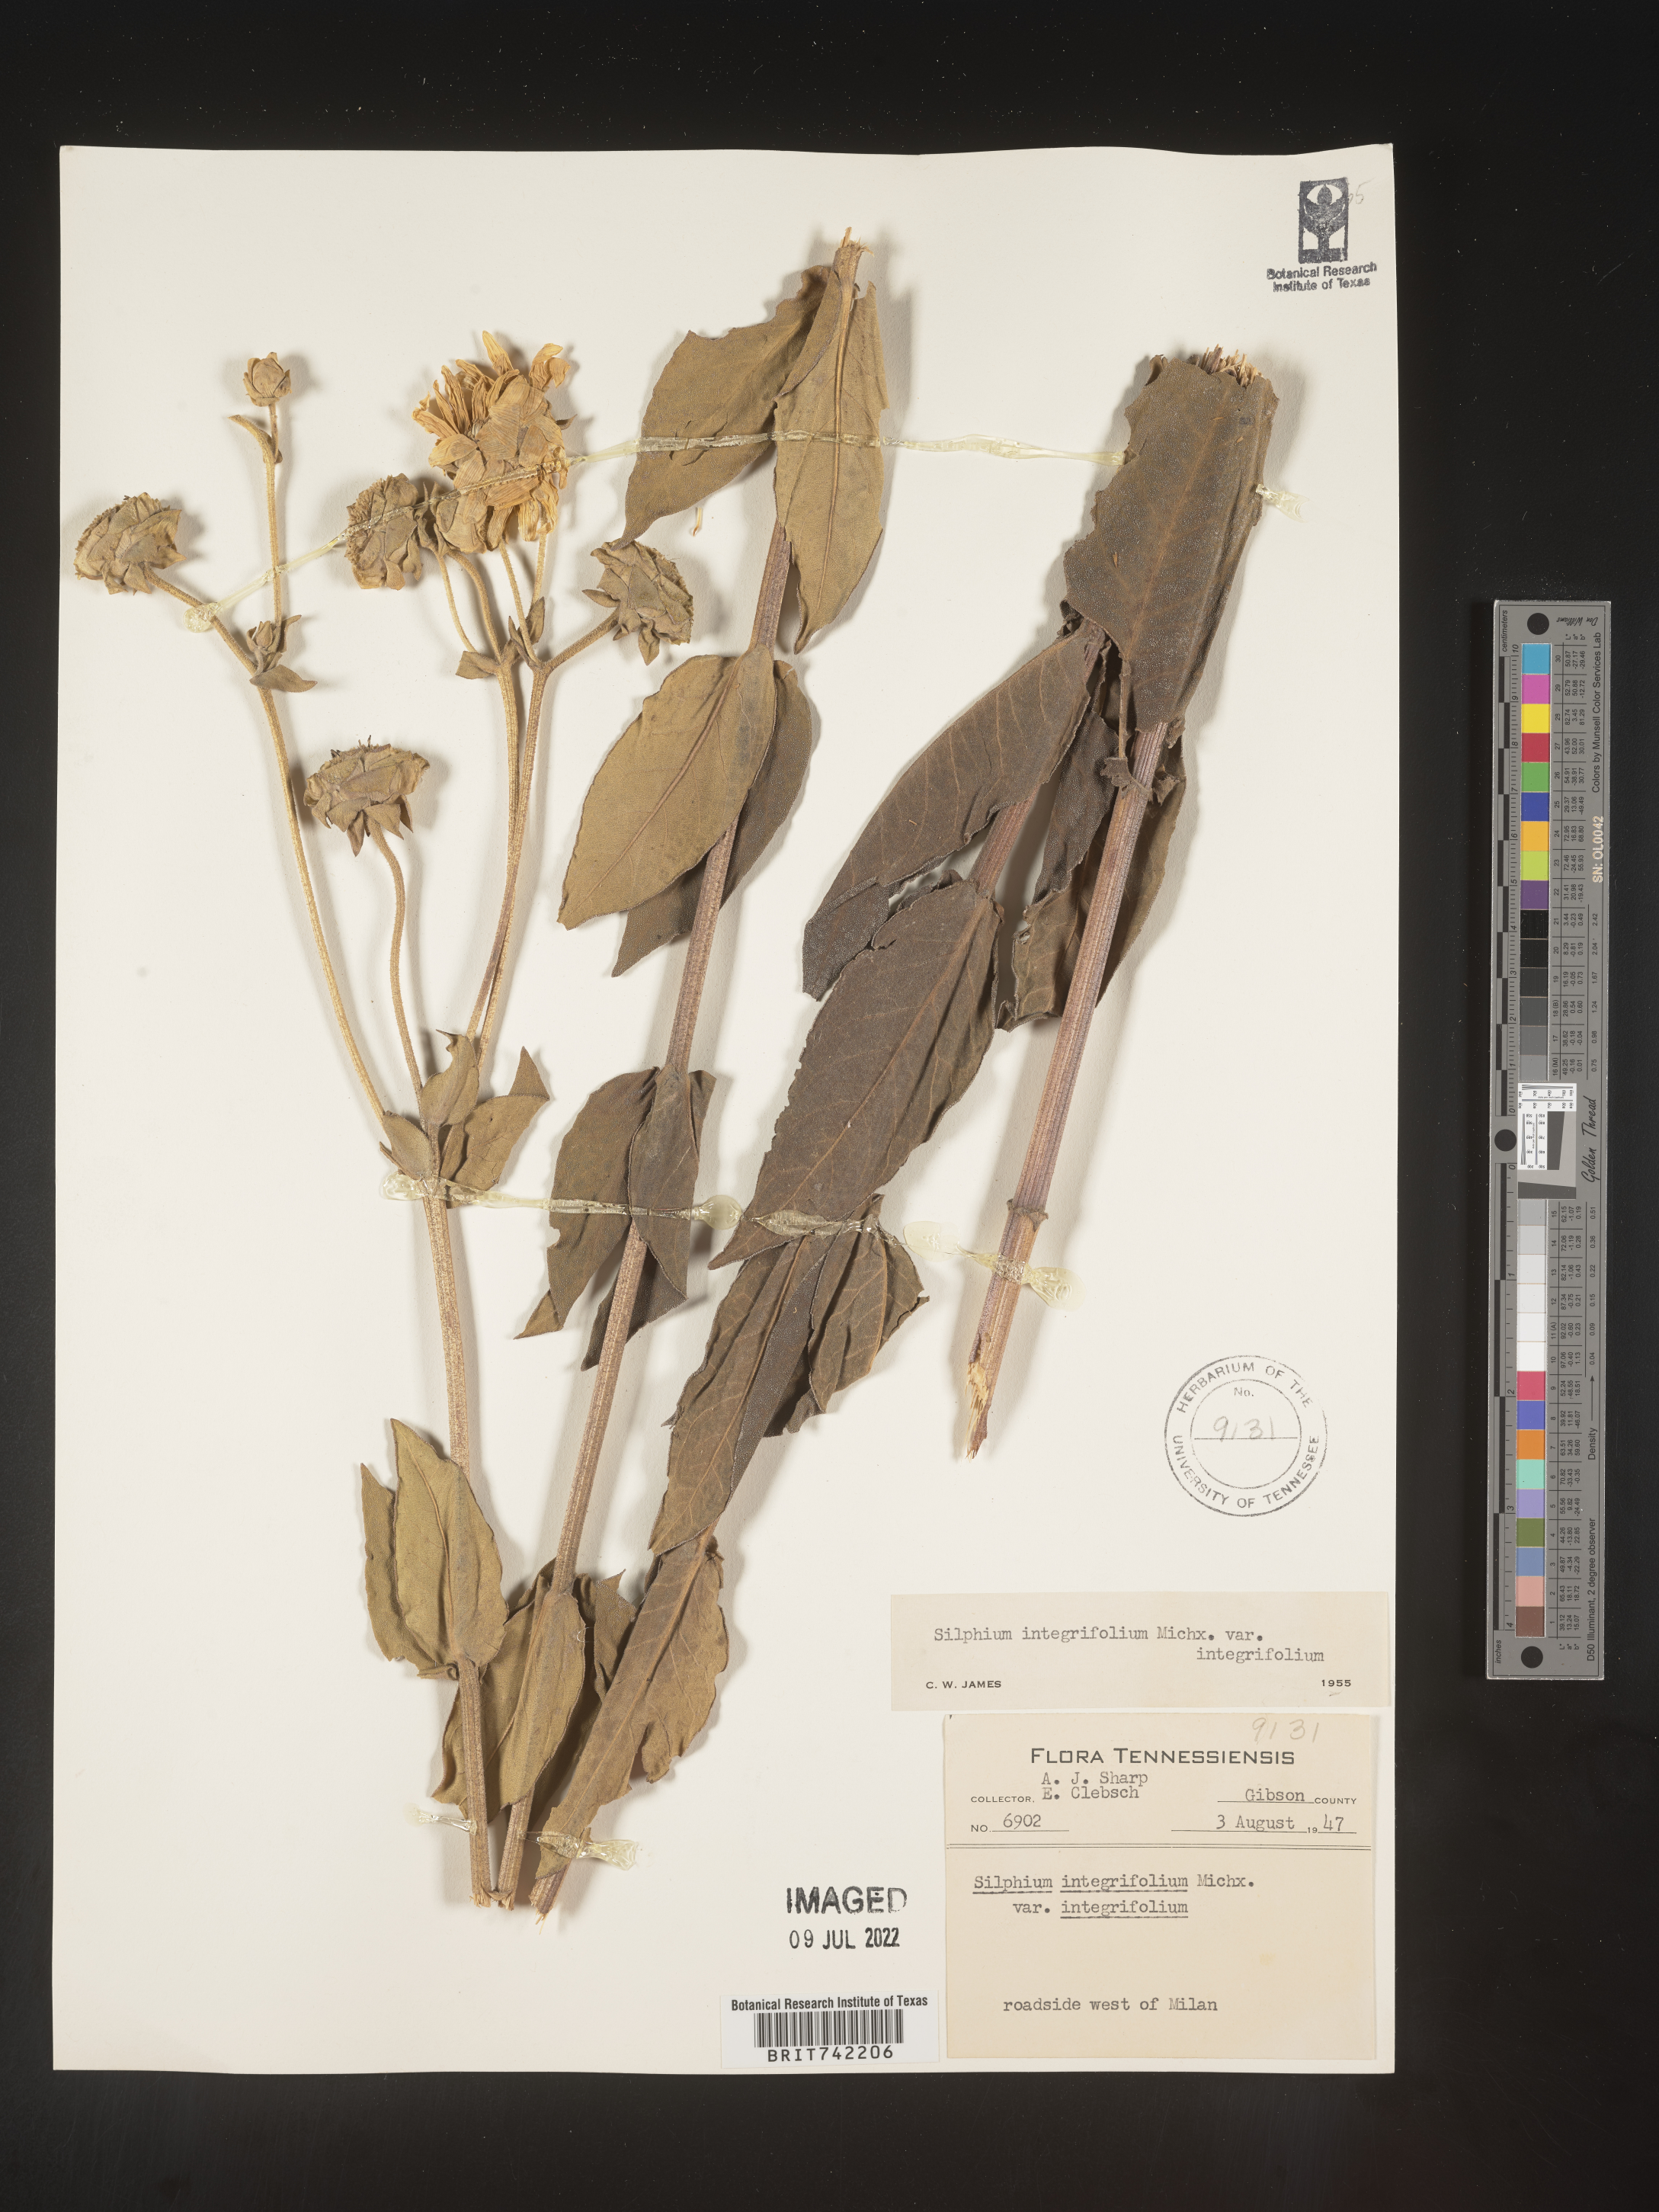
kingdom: Plantae
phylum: Tracheophyta
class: Magnoliopsida
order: Asterales
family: Asteraceae
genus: Silphium
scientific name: Silphium integrifolium
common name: Whole-leaf rosinweed
